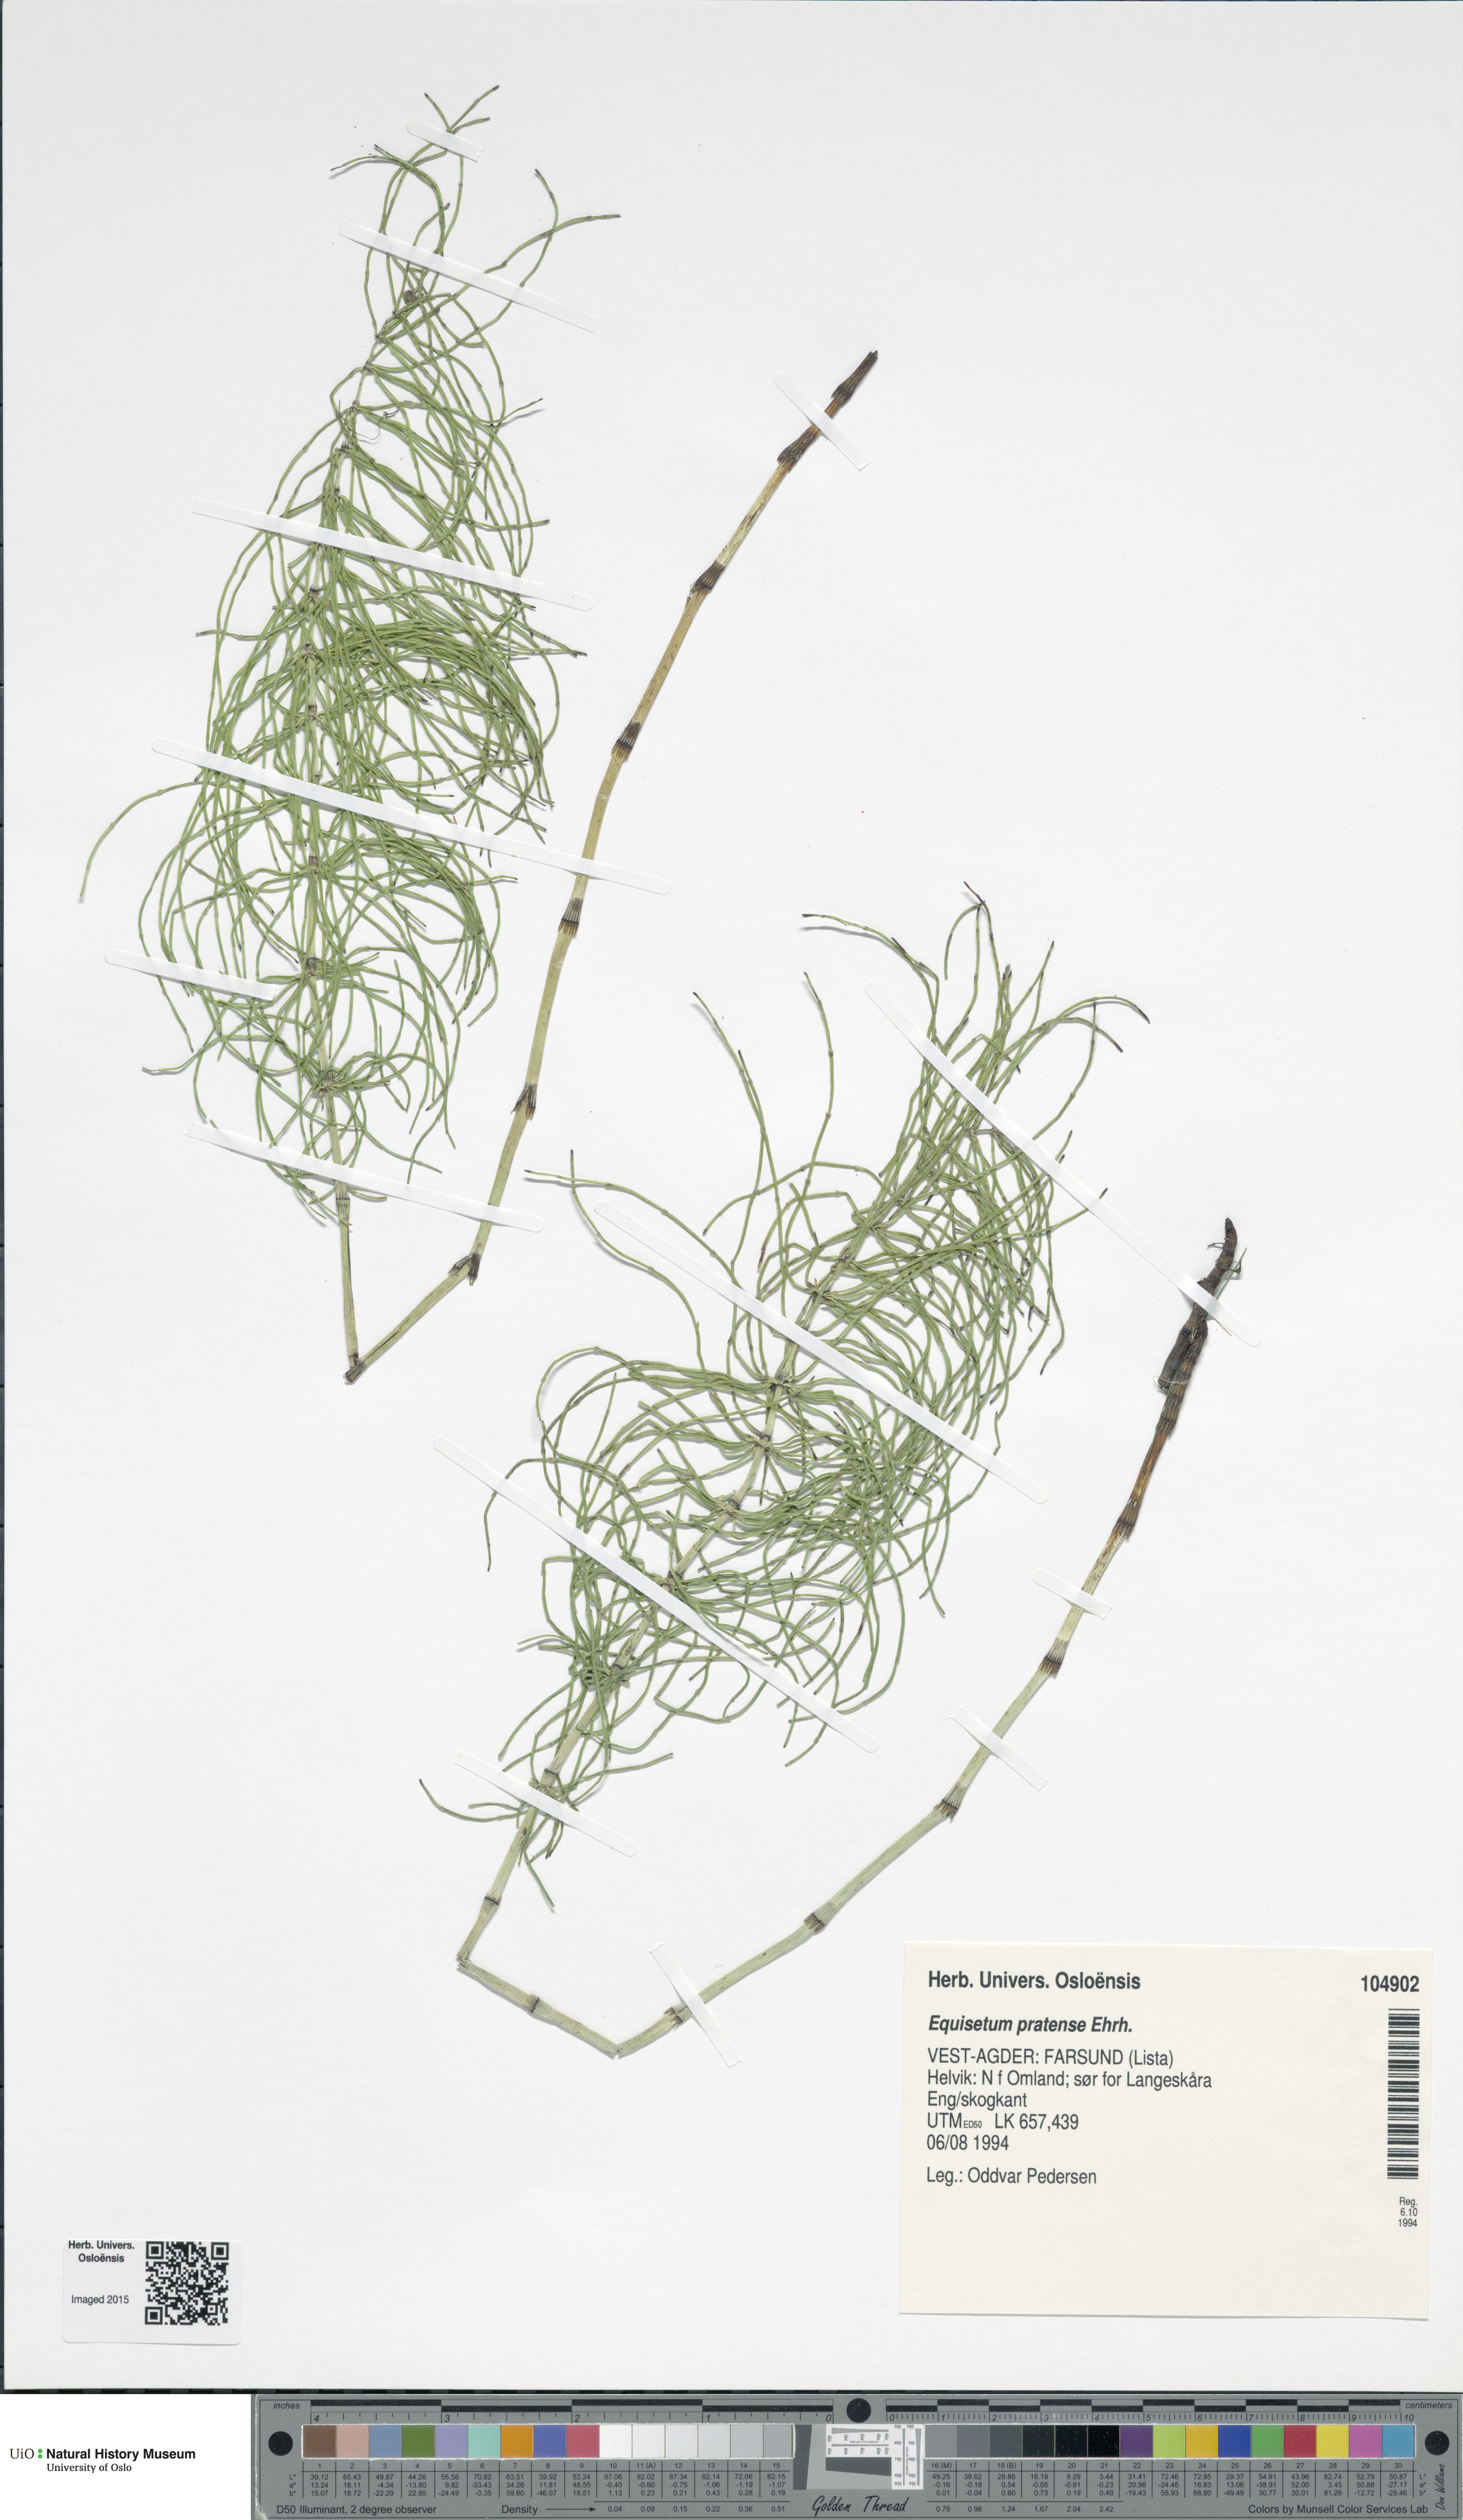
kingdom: Plantae
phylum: Tracheophyta
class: Polypodiopsida
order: Equisetales
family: Equisetaceae
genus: Equisetum
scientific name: Equisetum pratense
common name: Meadow horsetail
